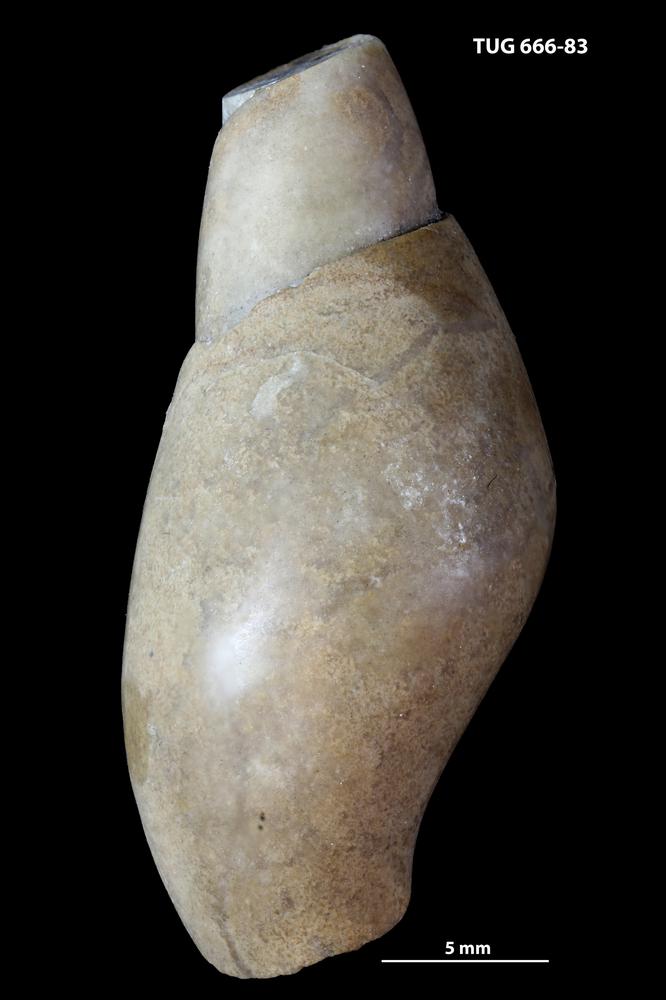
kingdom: Animalia
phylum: Mollusca
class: Gastropoda
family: Subulitidae
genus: Subulites
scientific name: Subulites priscus
